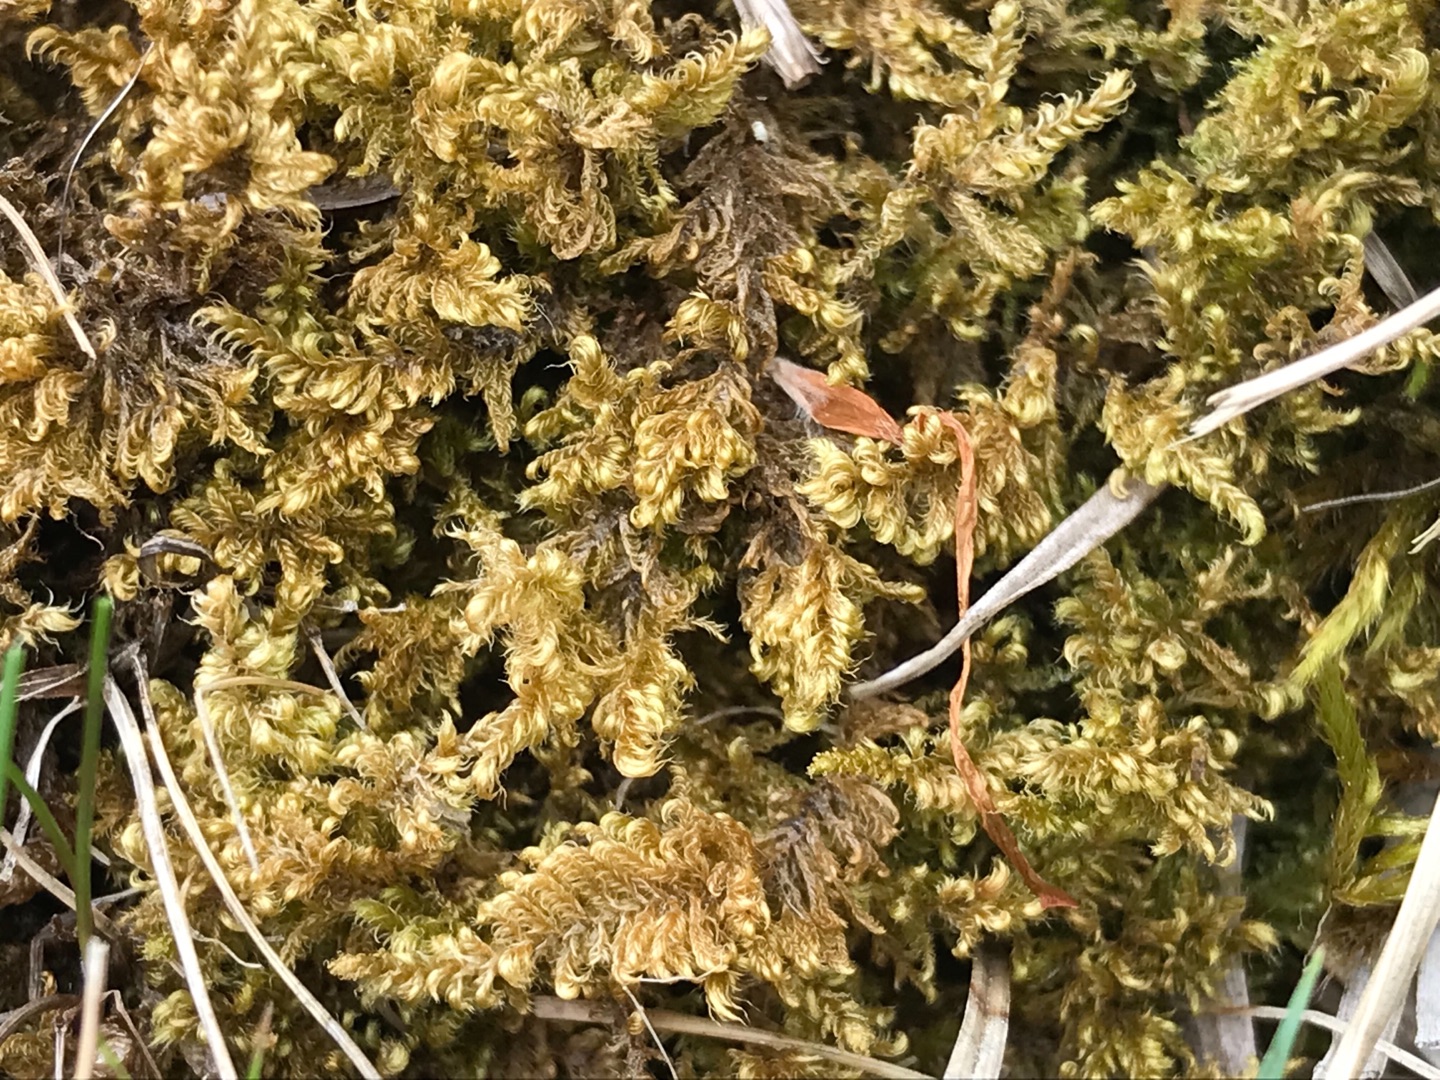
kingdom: Plantae
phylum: Bryophyta
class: Bryopsida
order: Hypnales
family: Myuriaceae
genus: Ctenidium
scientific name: Ctenidium molluscum
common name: Kalk-blødmos
